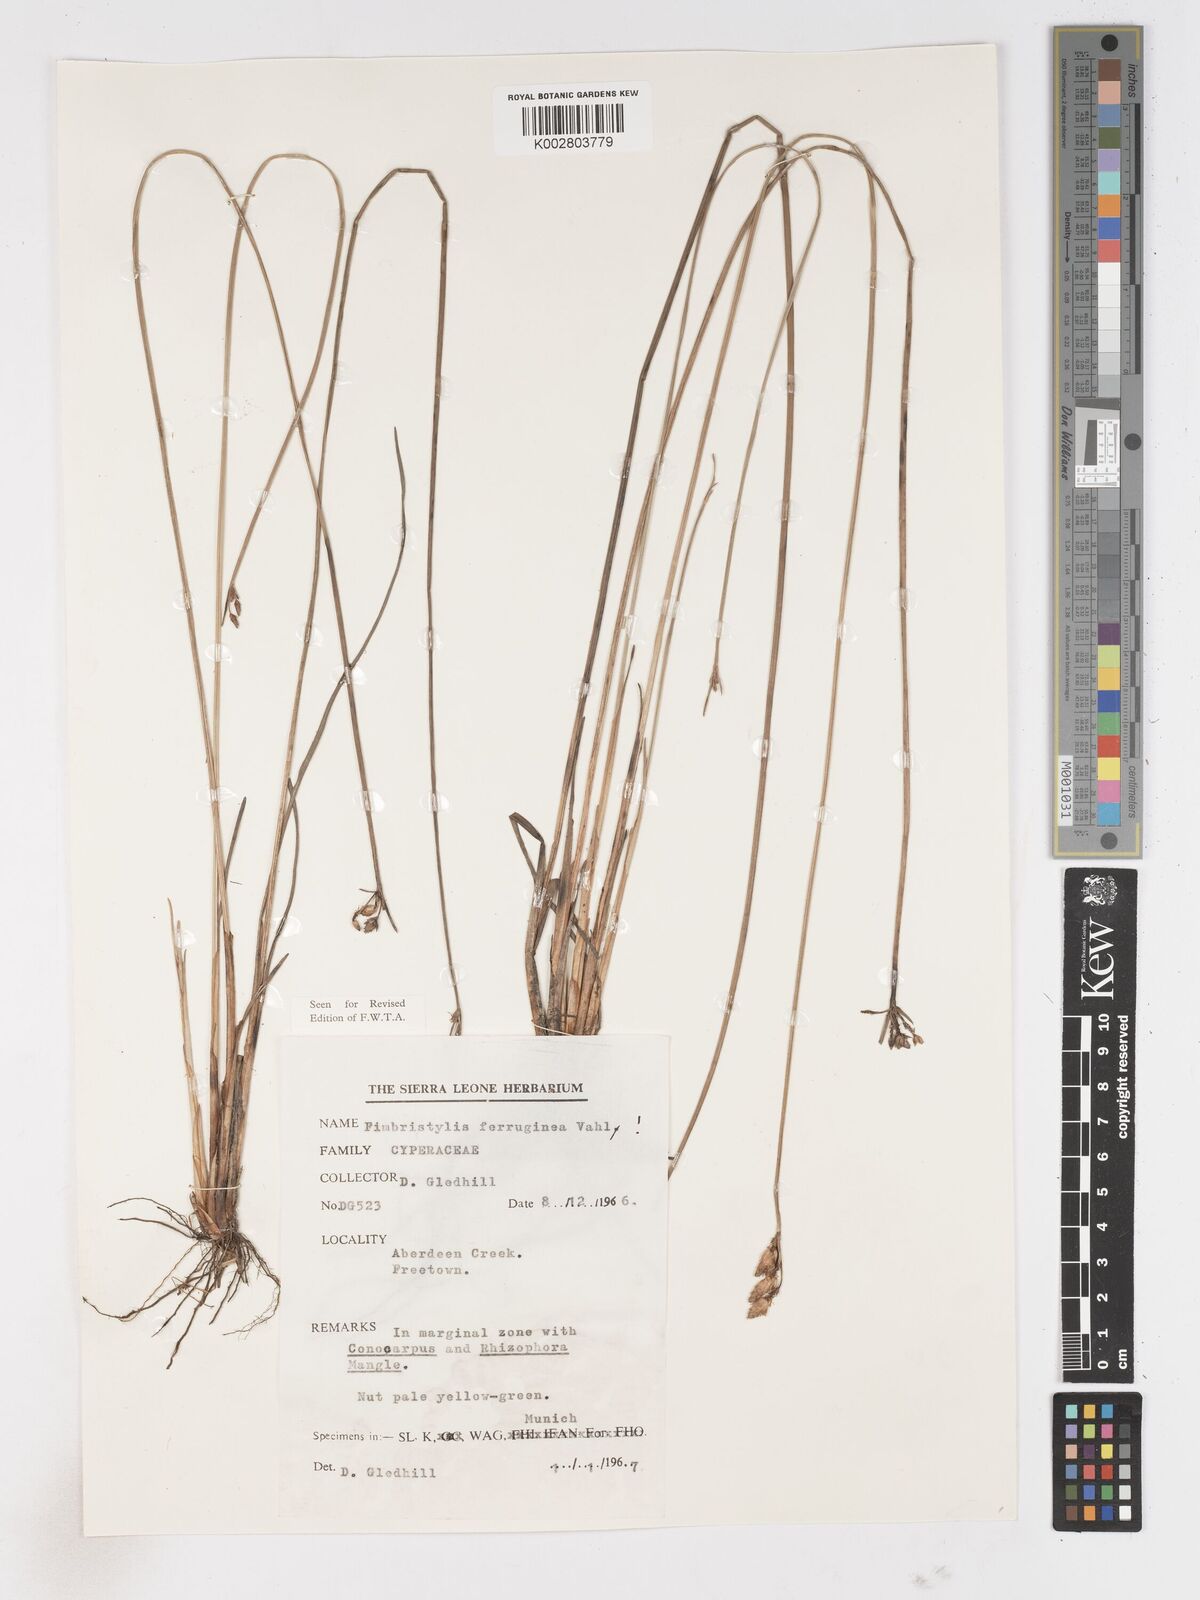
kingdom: Plantae
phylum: Tracheophyta
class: Liliopsida
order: Poales
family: Cyperaceae
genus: Fimbristylis
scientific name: Fimbristylis ferruginea
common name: West indian fimbry
